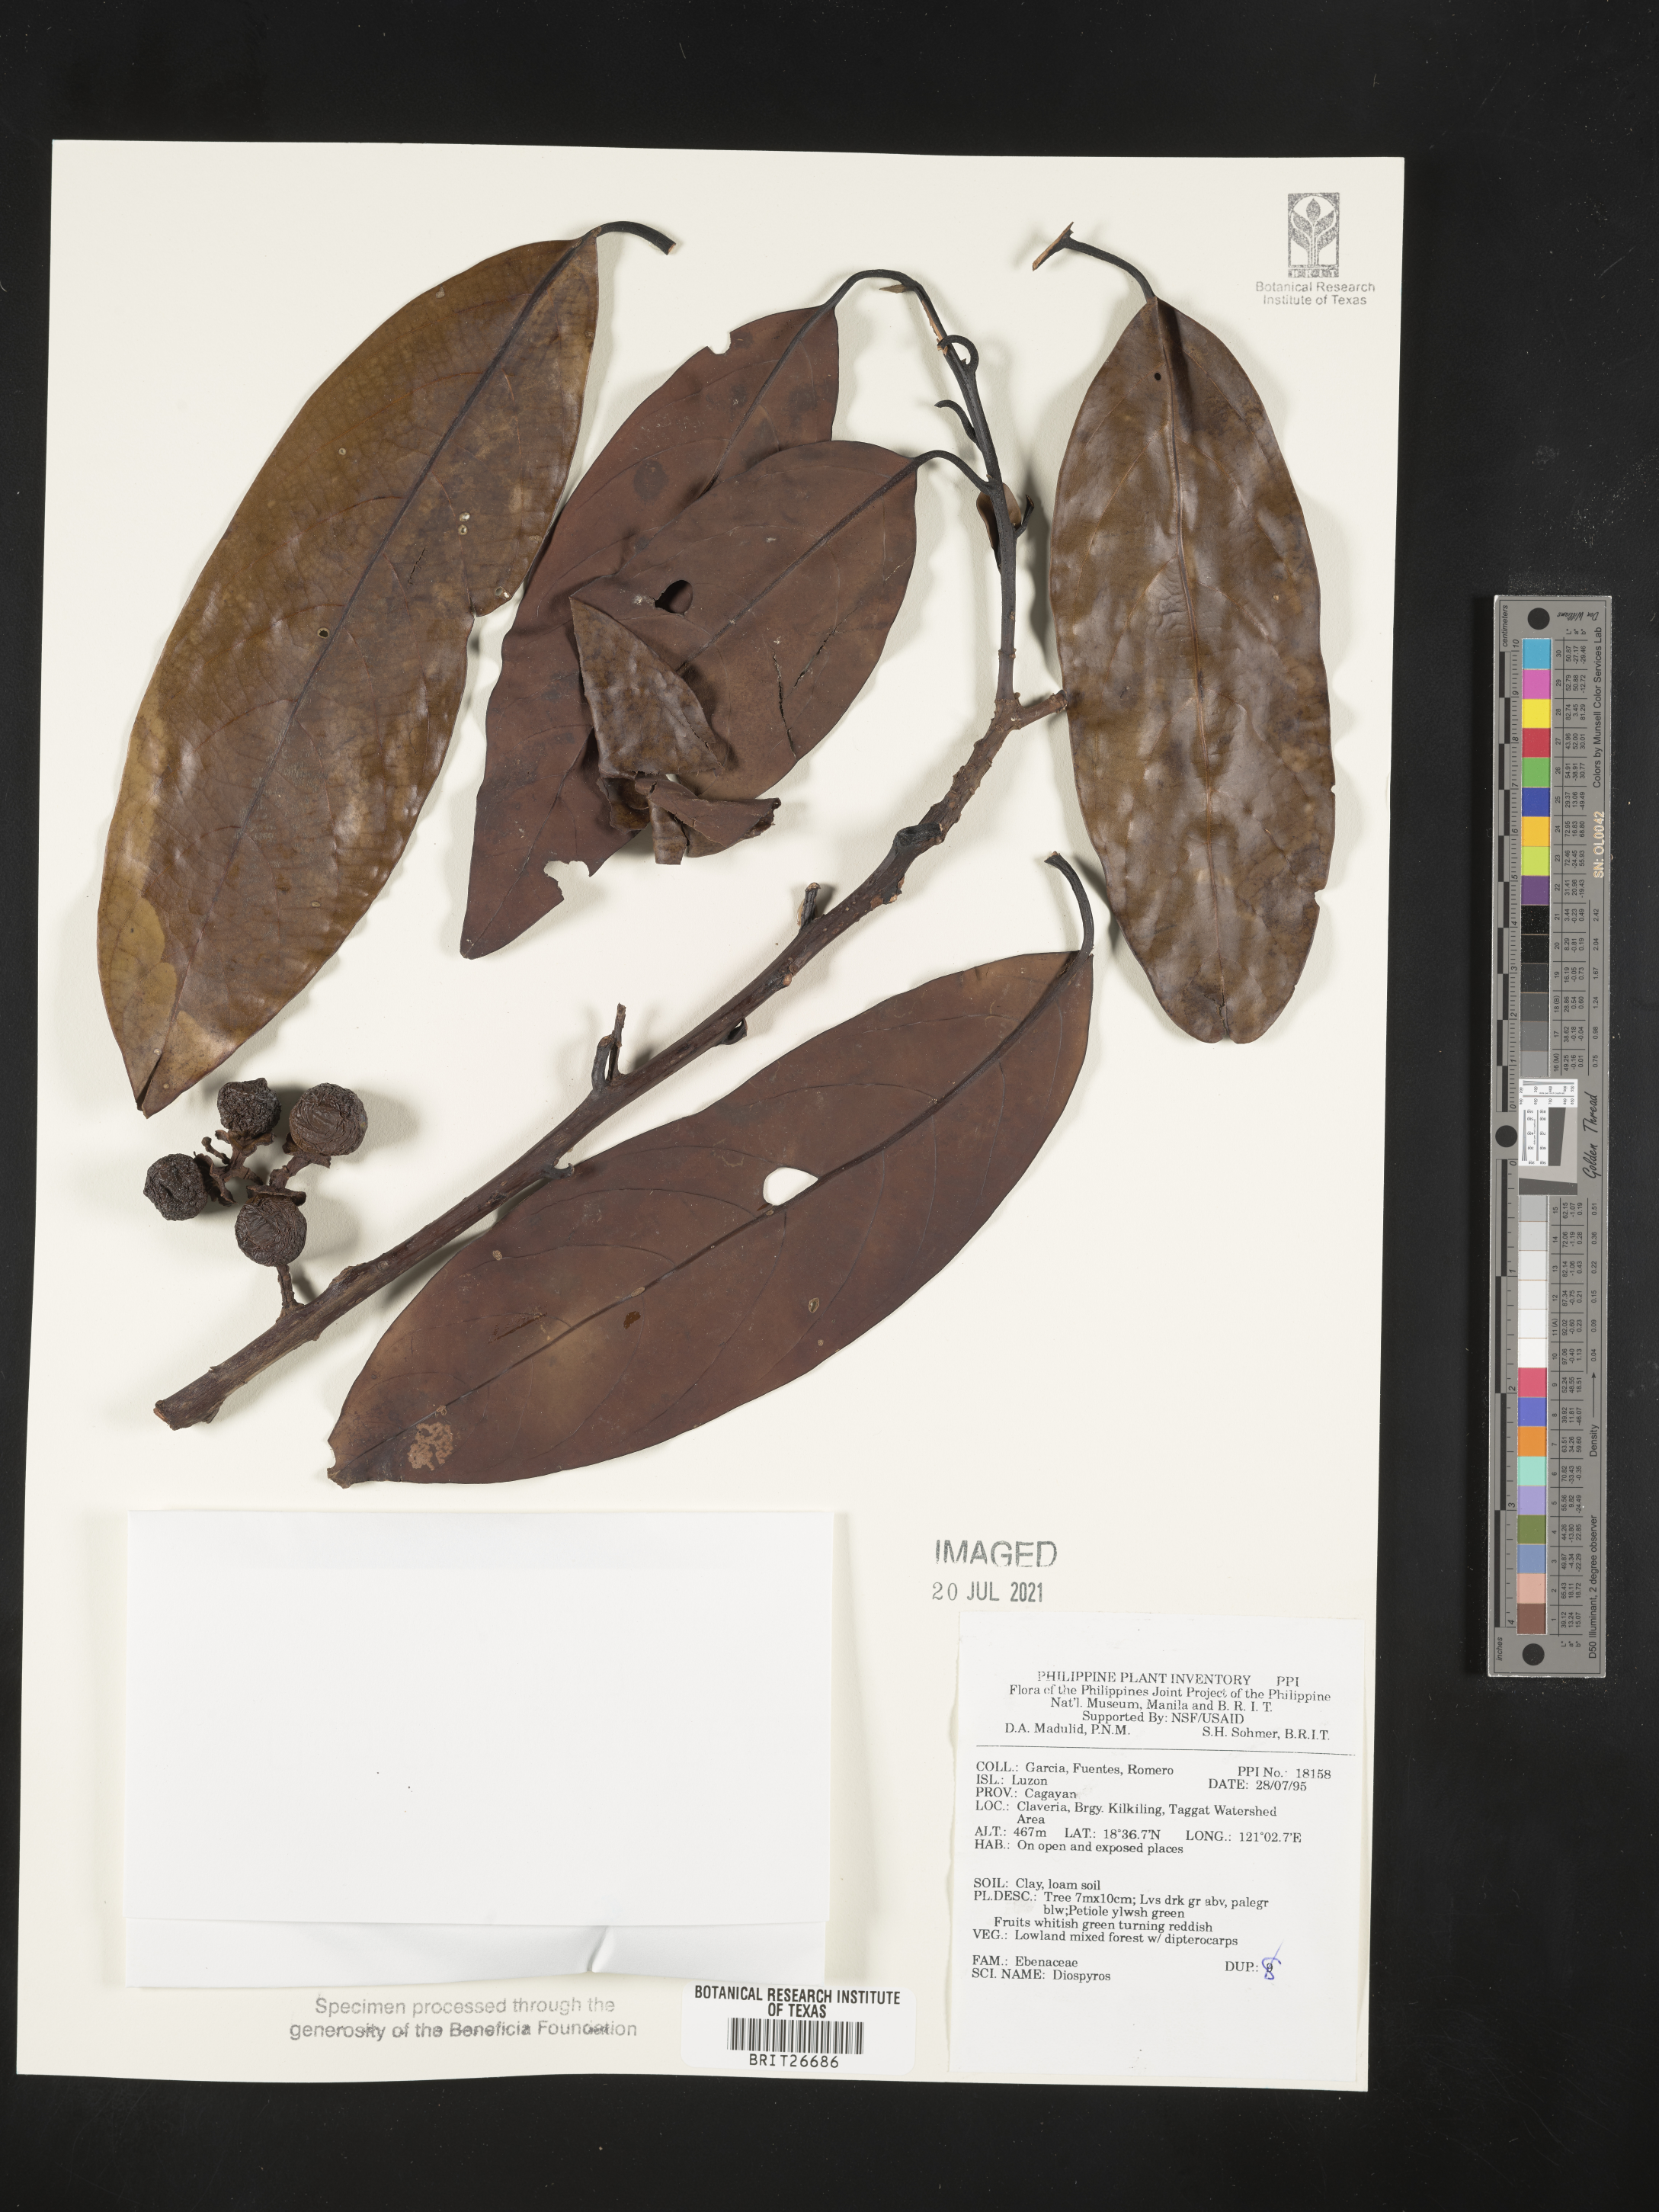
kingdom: Plantae
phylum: Tracheophyta
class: Magnoliopsida
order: Ericales
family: Ebenaceae
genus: Diospyros
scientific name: Diospyros
